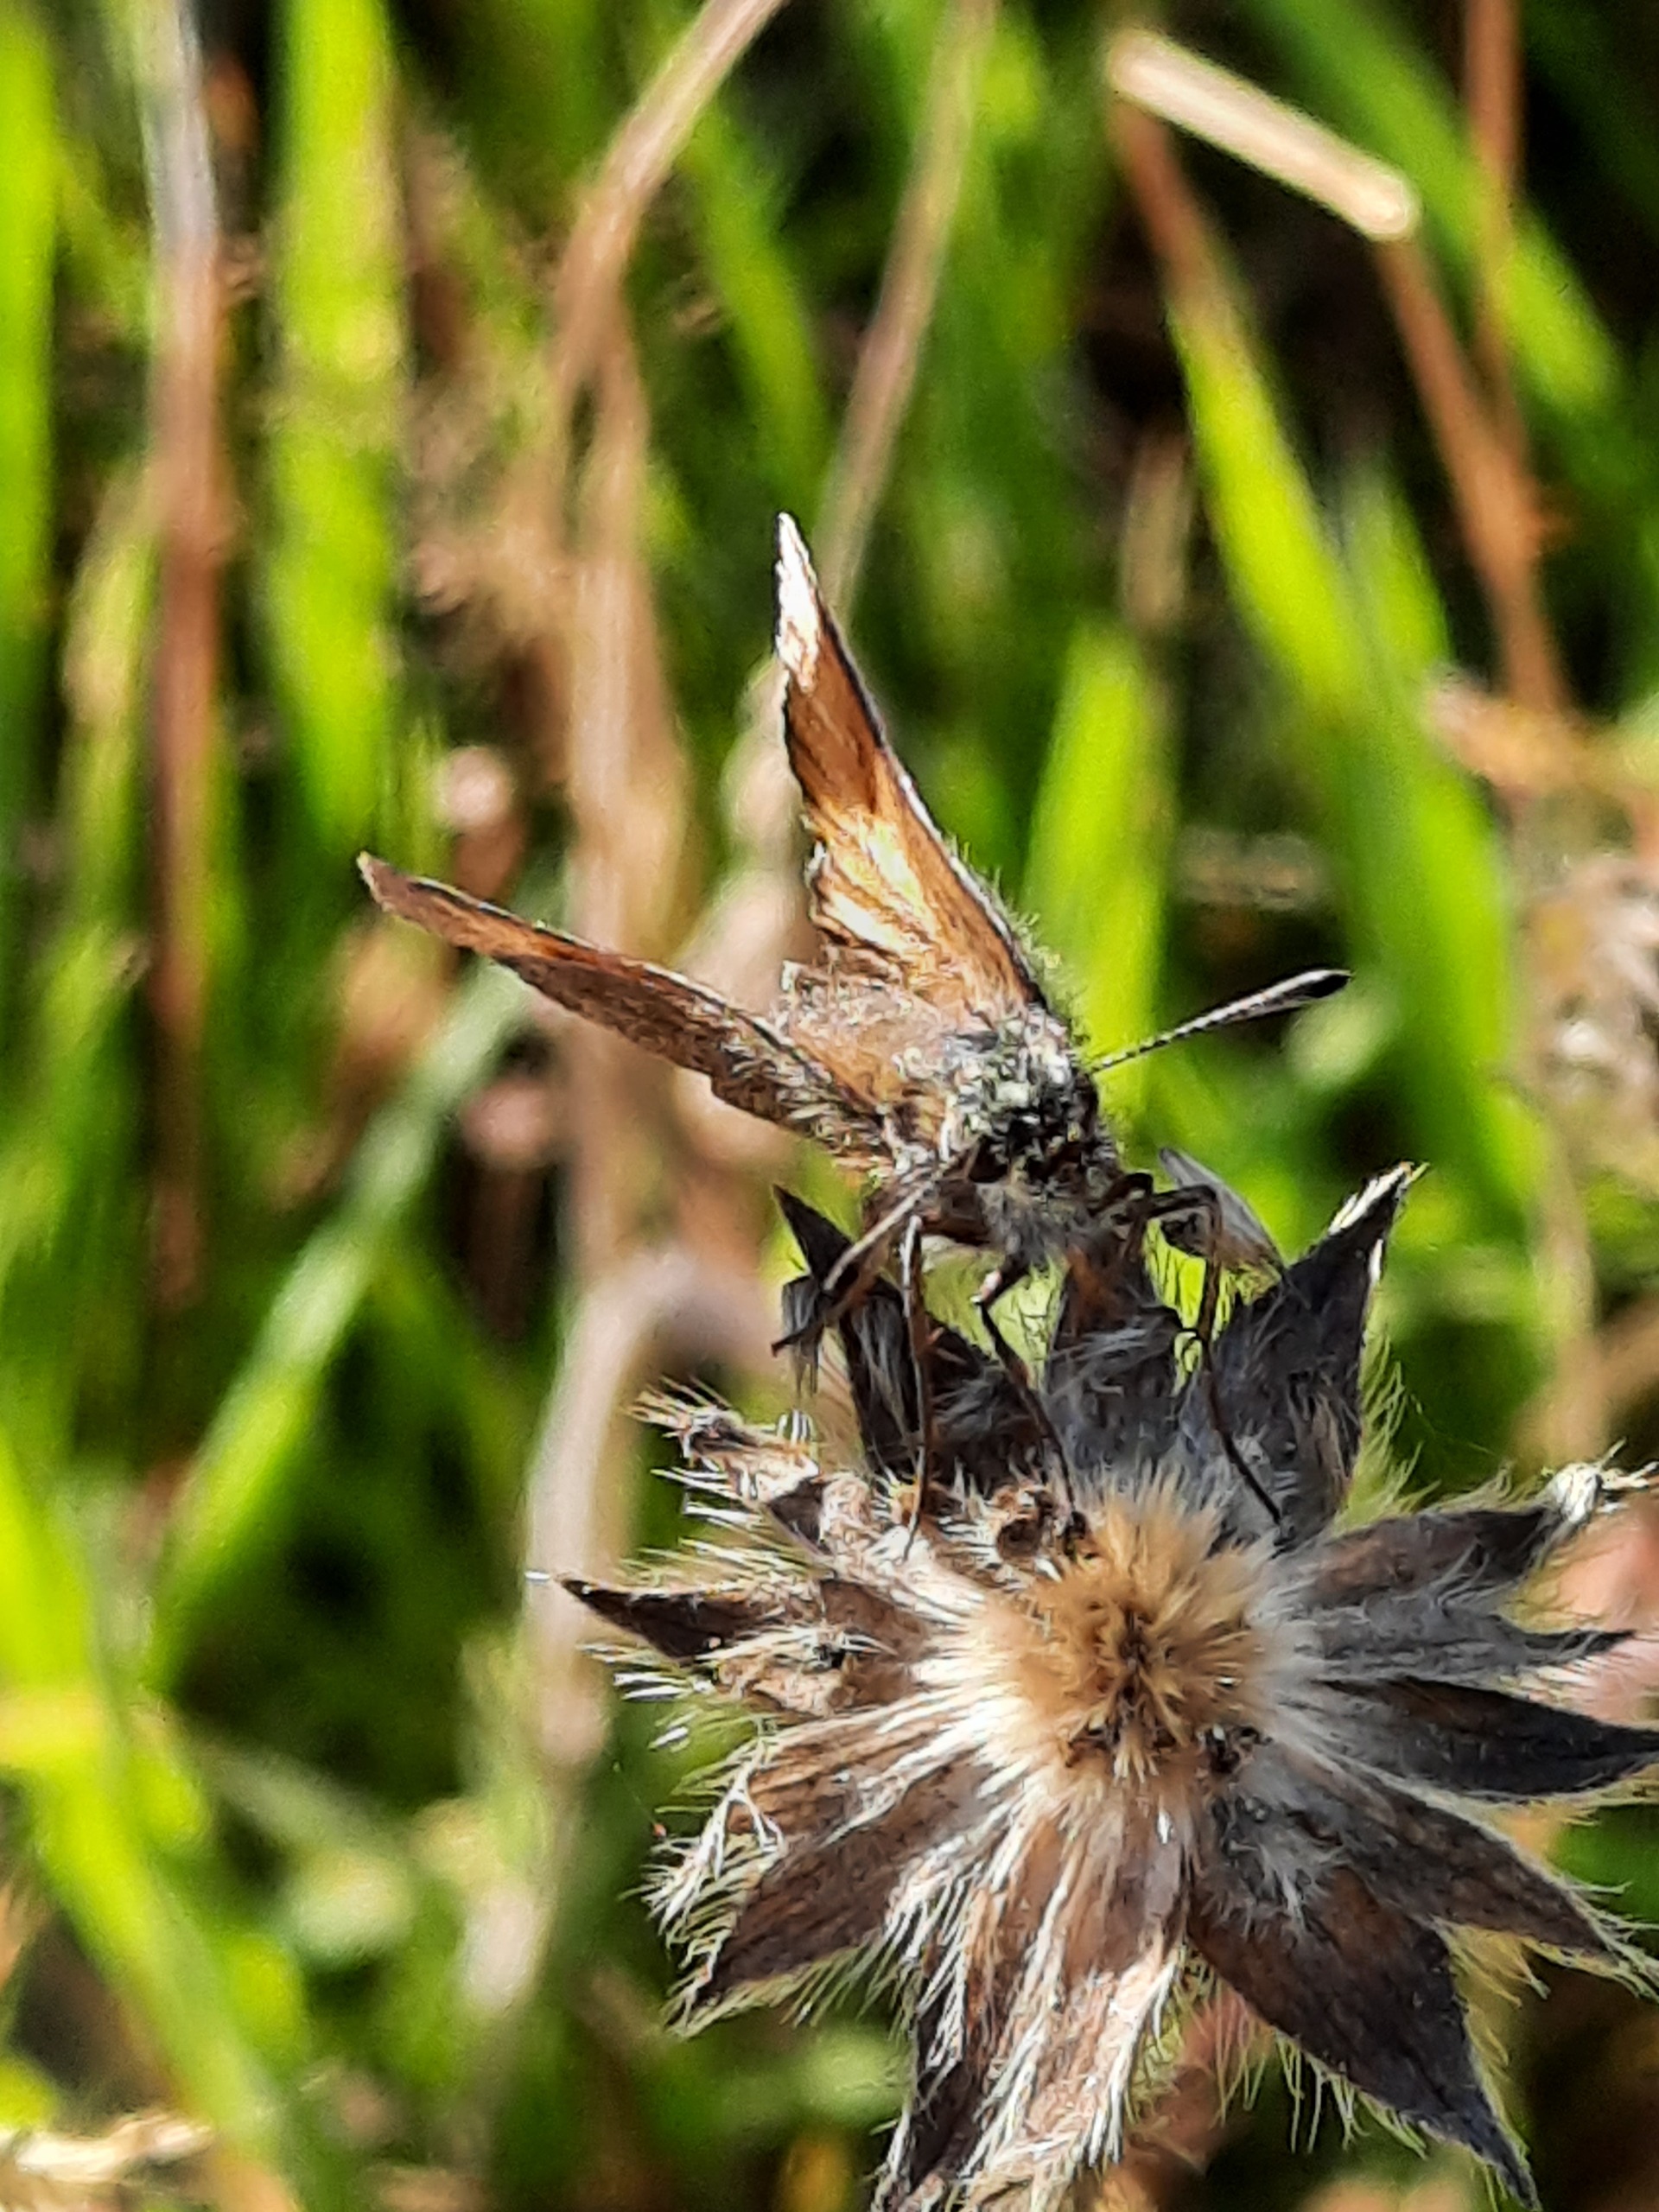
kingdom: Animalia
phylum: Arthropoda
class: Insecta
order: Lepidoptera
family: Hesperiidae
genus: Thymelicus
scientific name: Thymelicus lineola
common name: Stregbredpande
